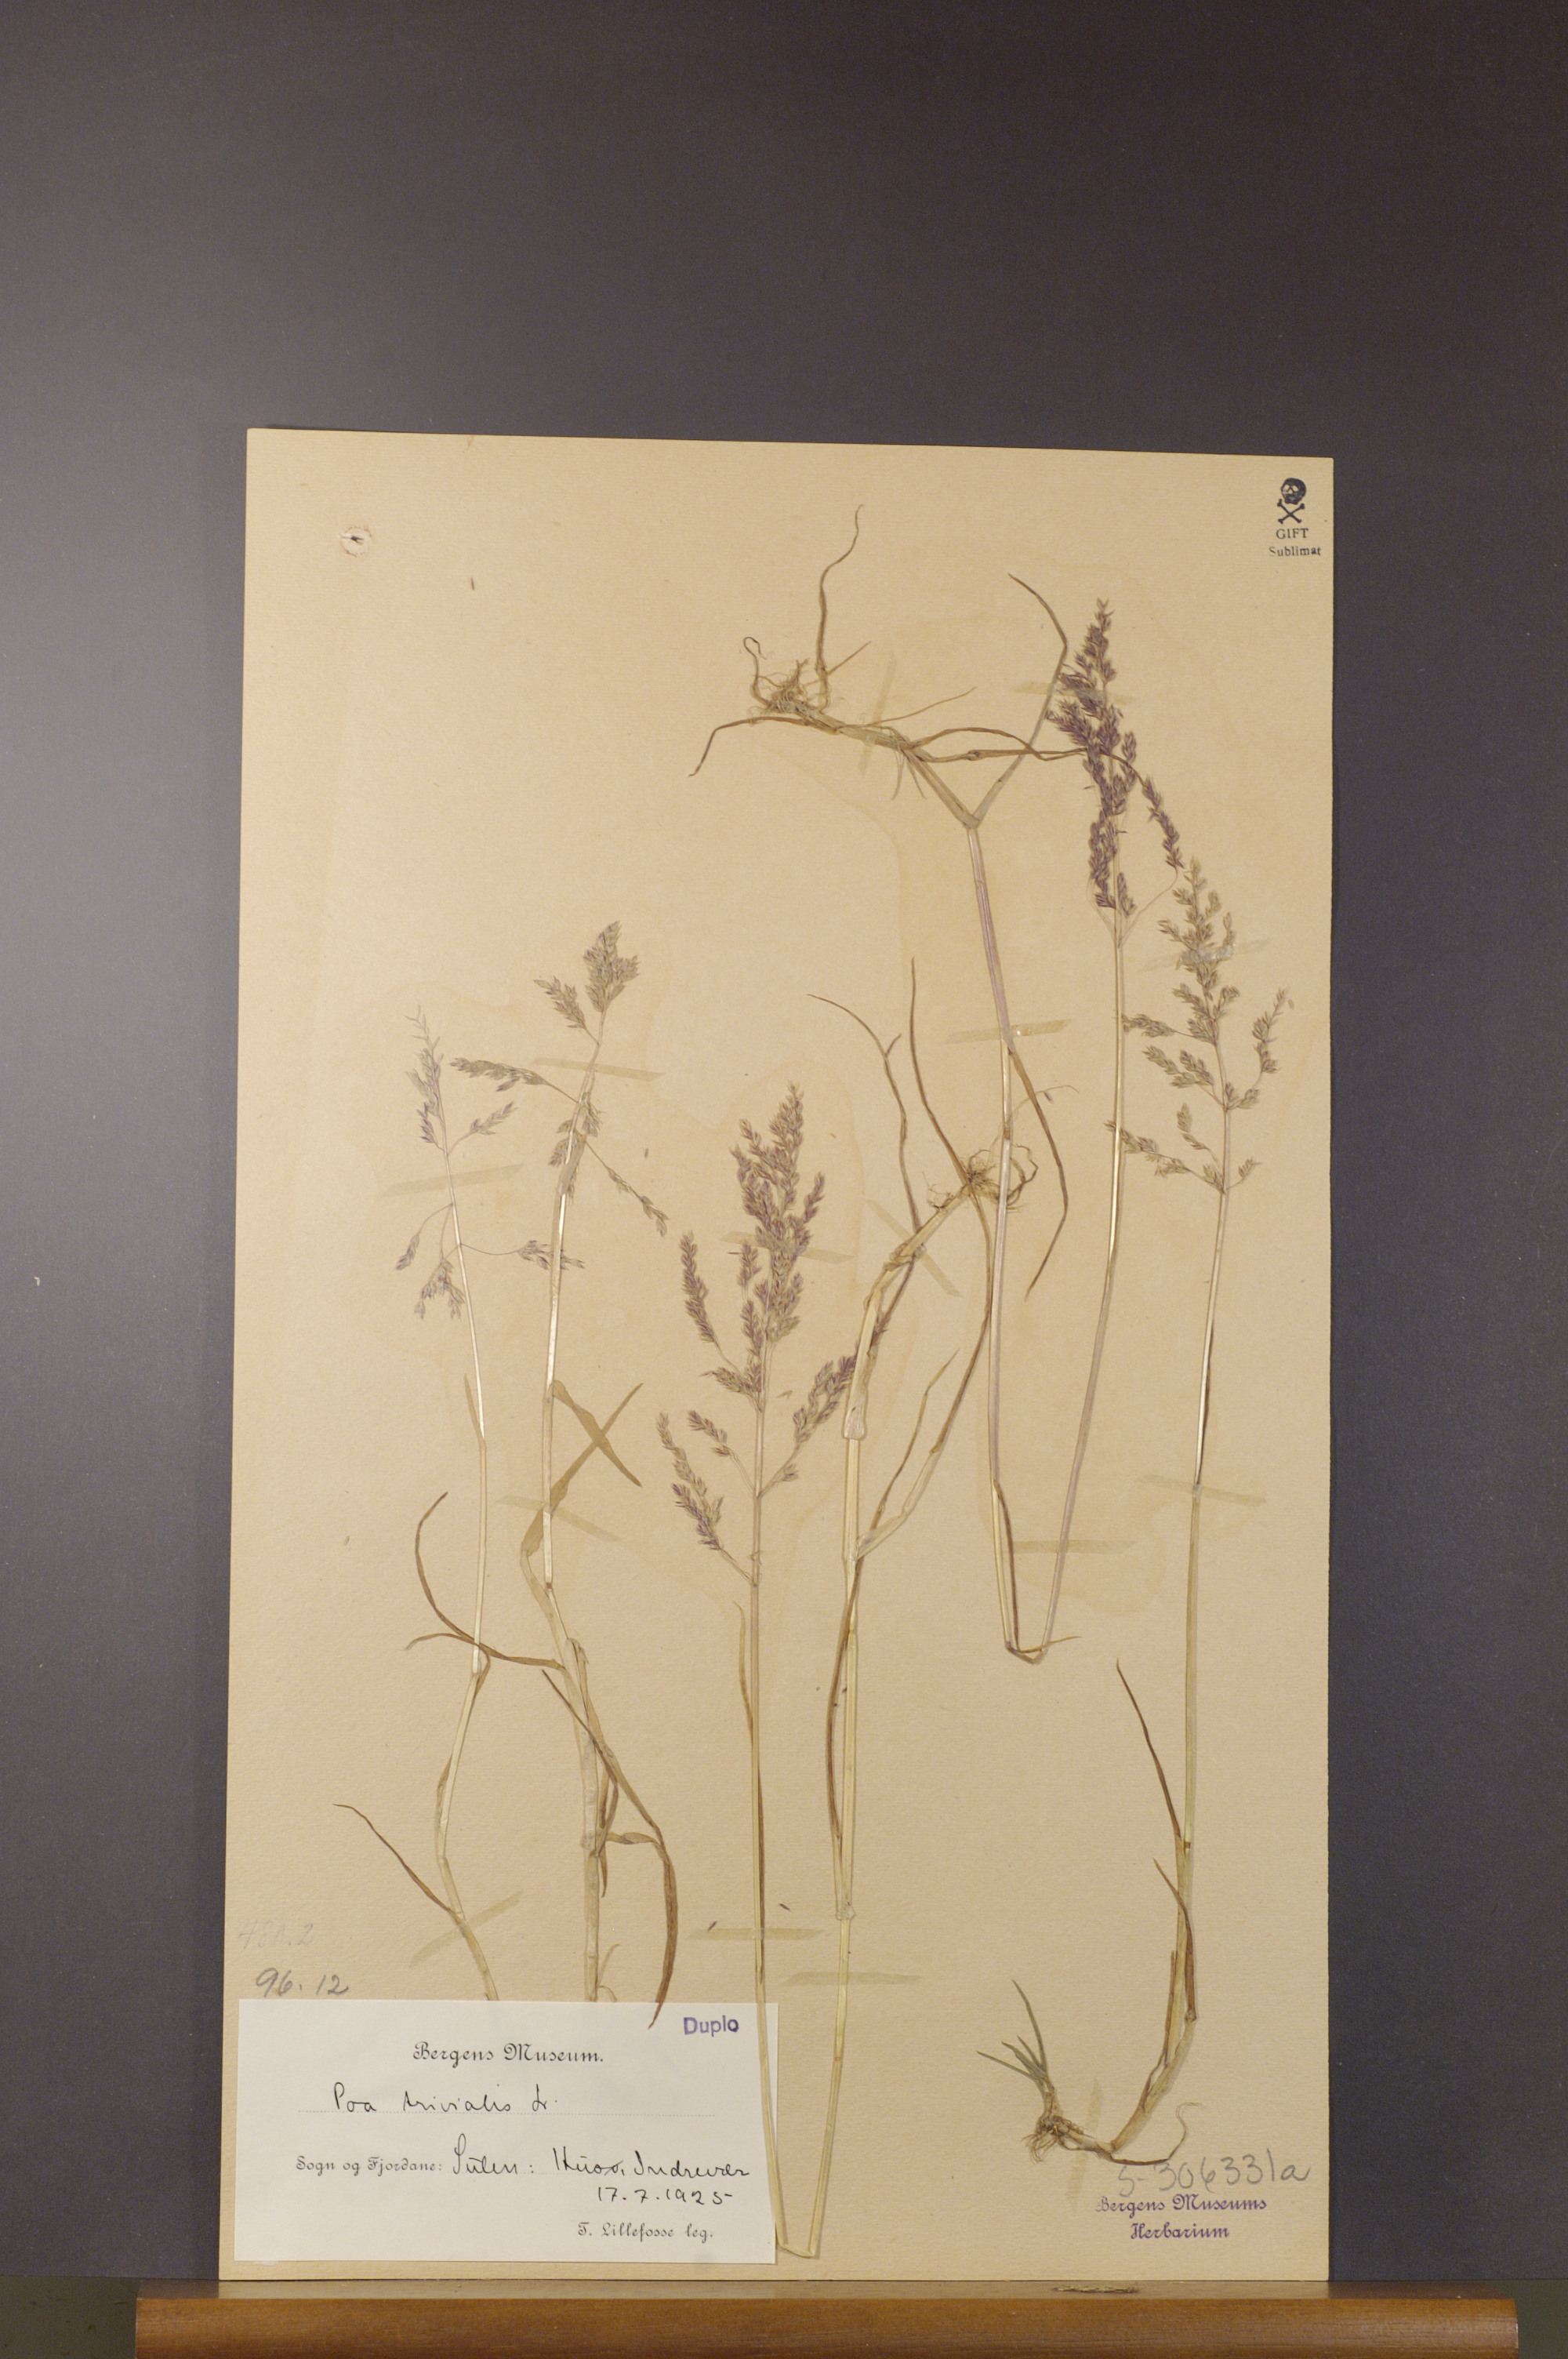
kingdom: Plantae
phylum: Tracheophyta
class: Liliopsida
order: Poales
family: Poaceae
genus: Poa
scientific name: Poa trivialis
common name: Rough bluegrass
